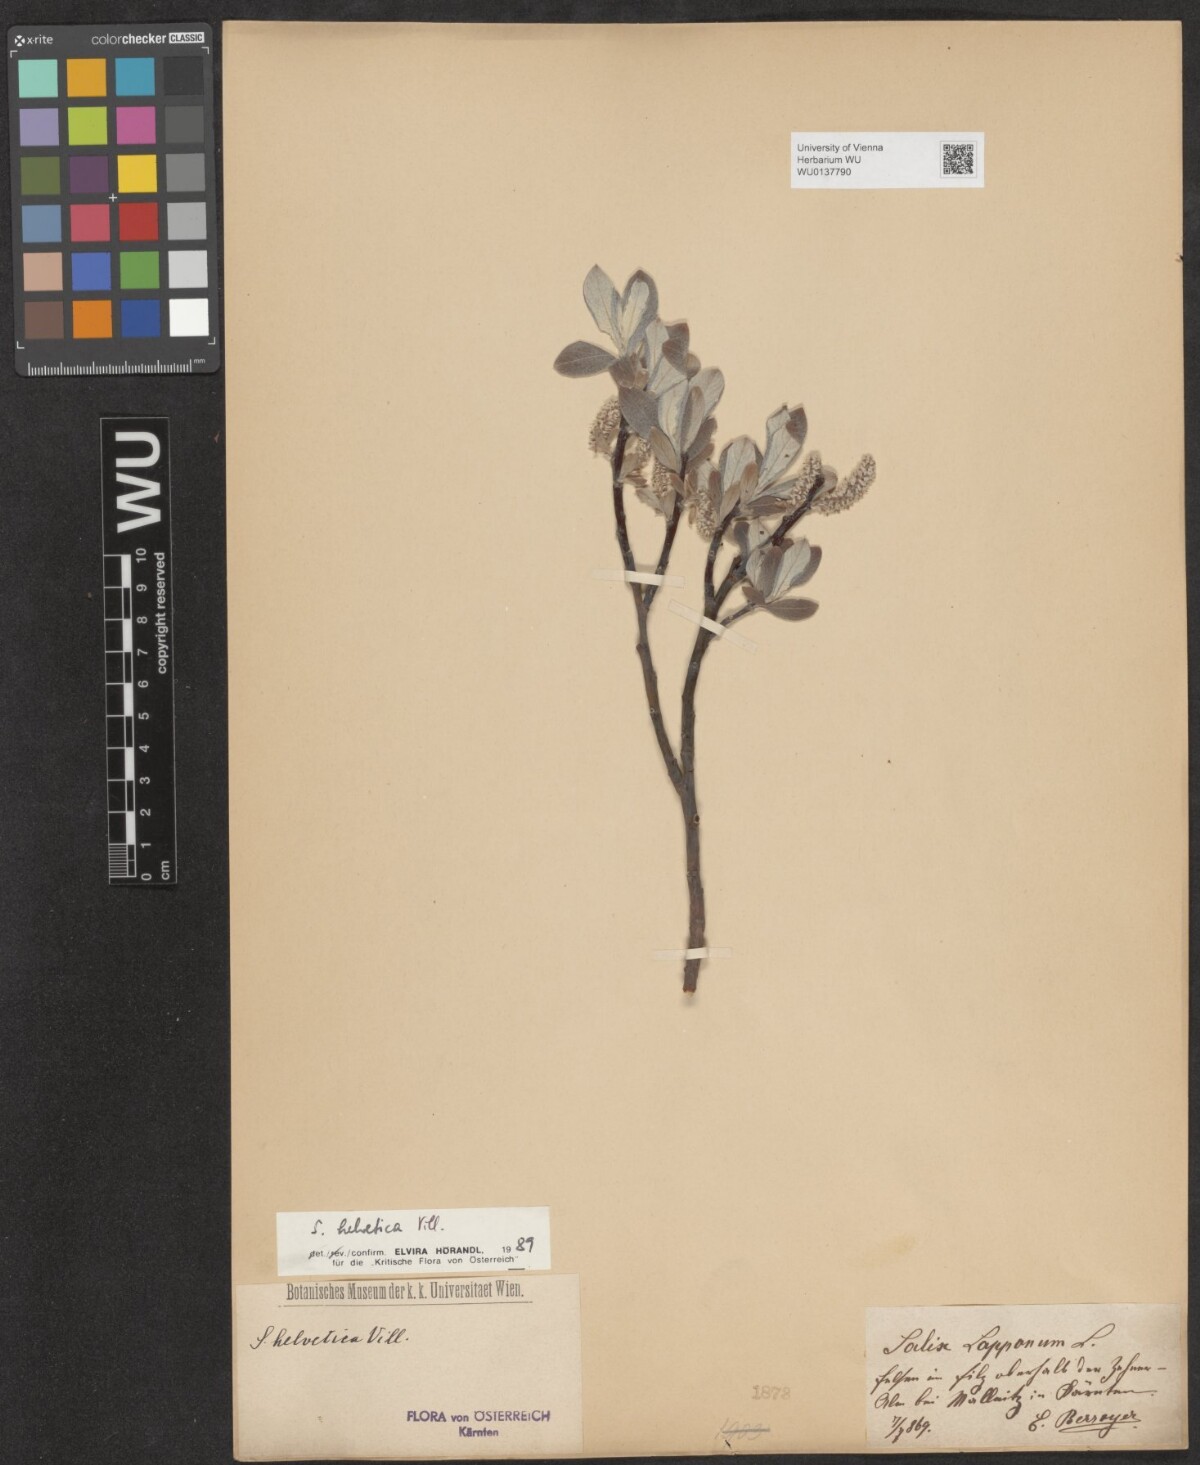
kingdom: Plantae
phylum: Tracheophyta
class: Magnoliopsida
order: Malpighiales
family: Salicaceae
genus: Salix
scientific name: Salix helvetica
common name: Swiss willow
